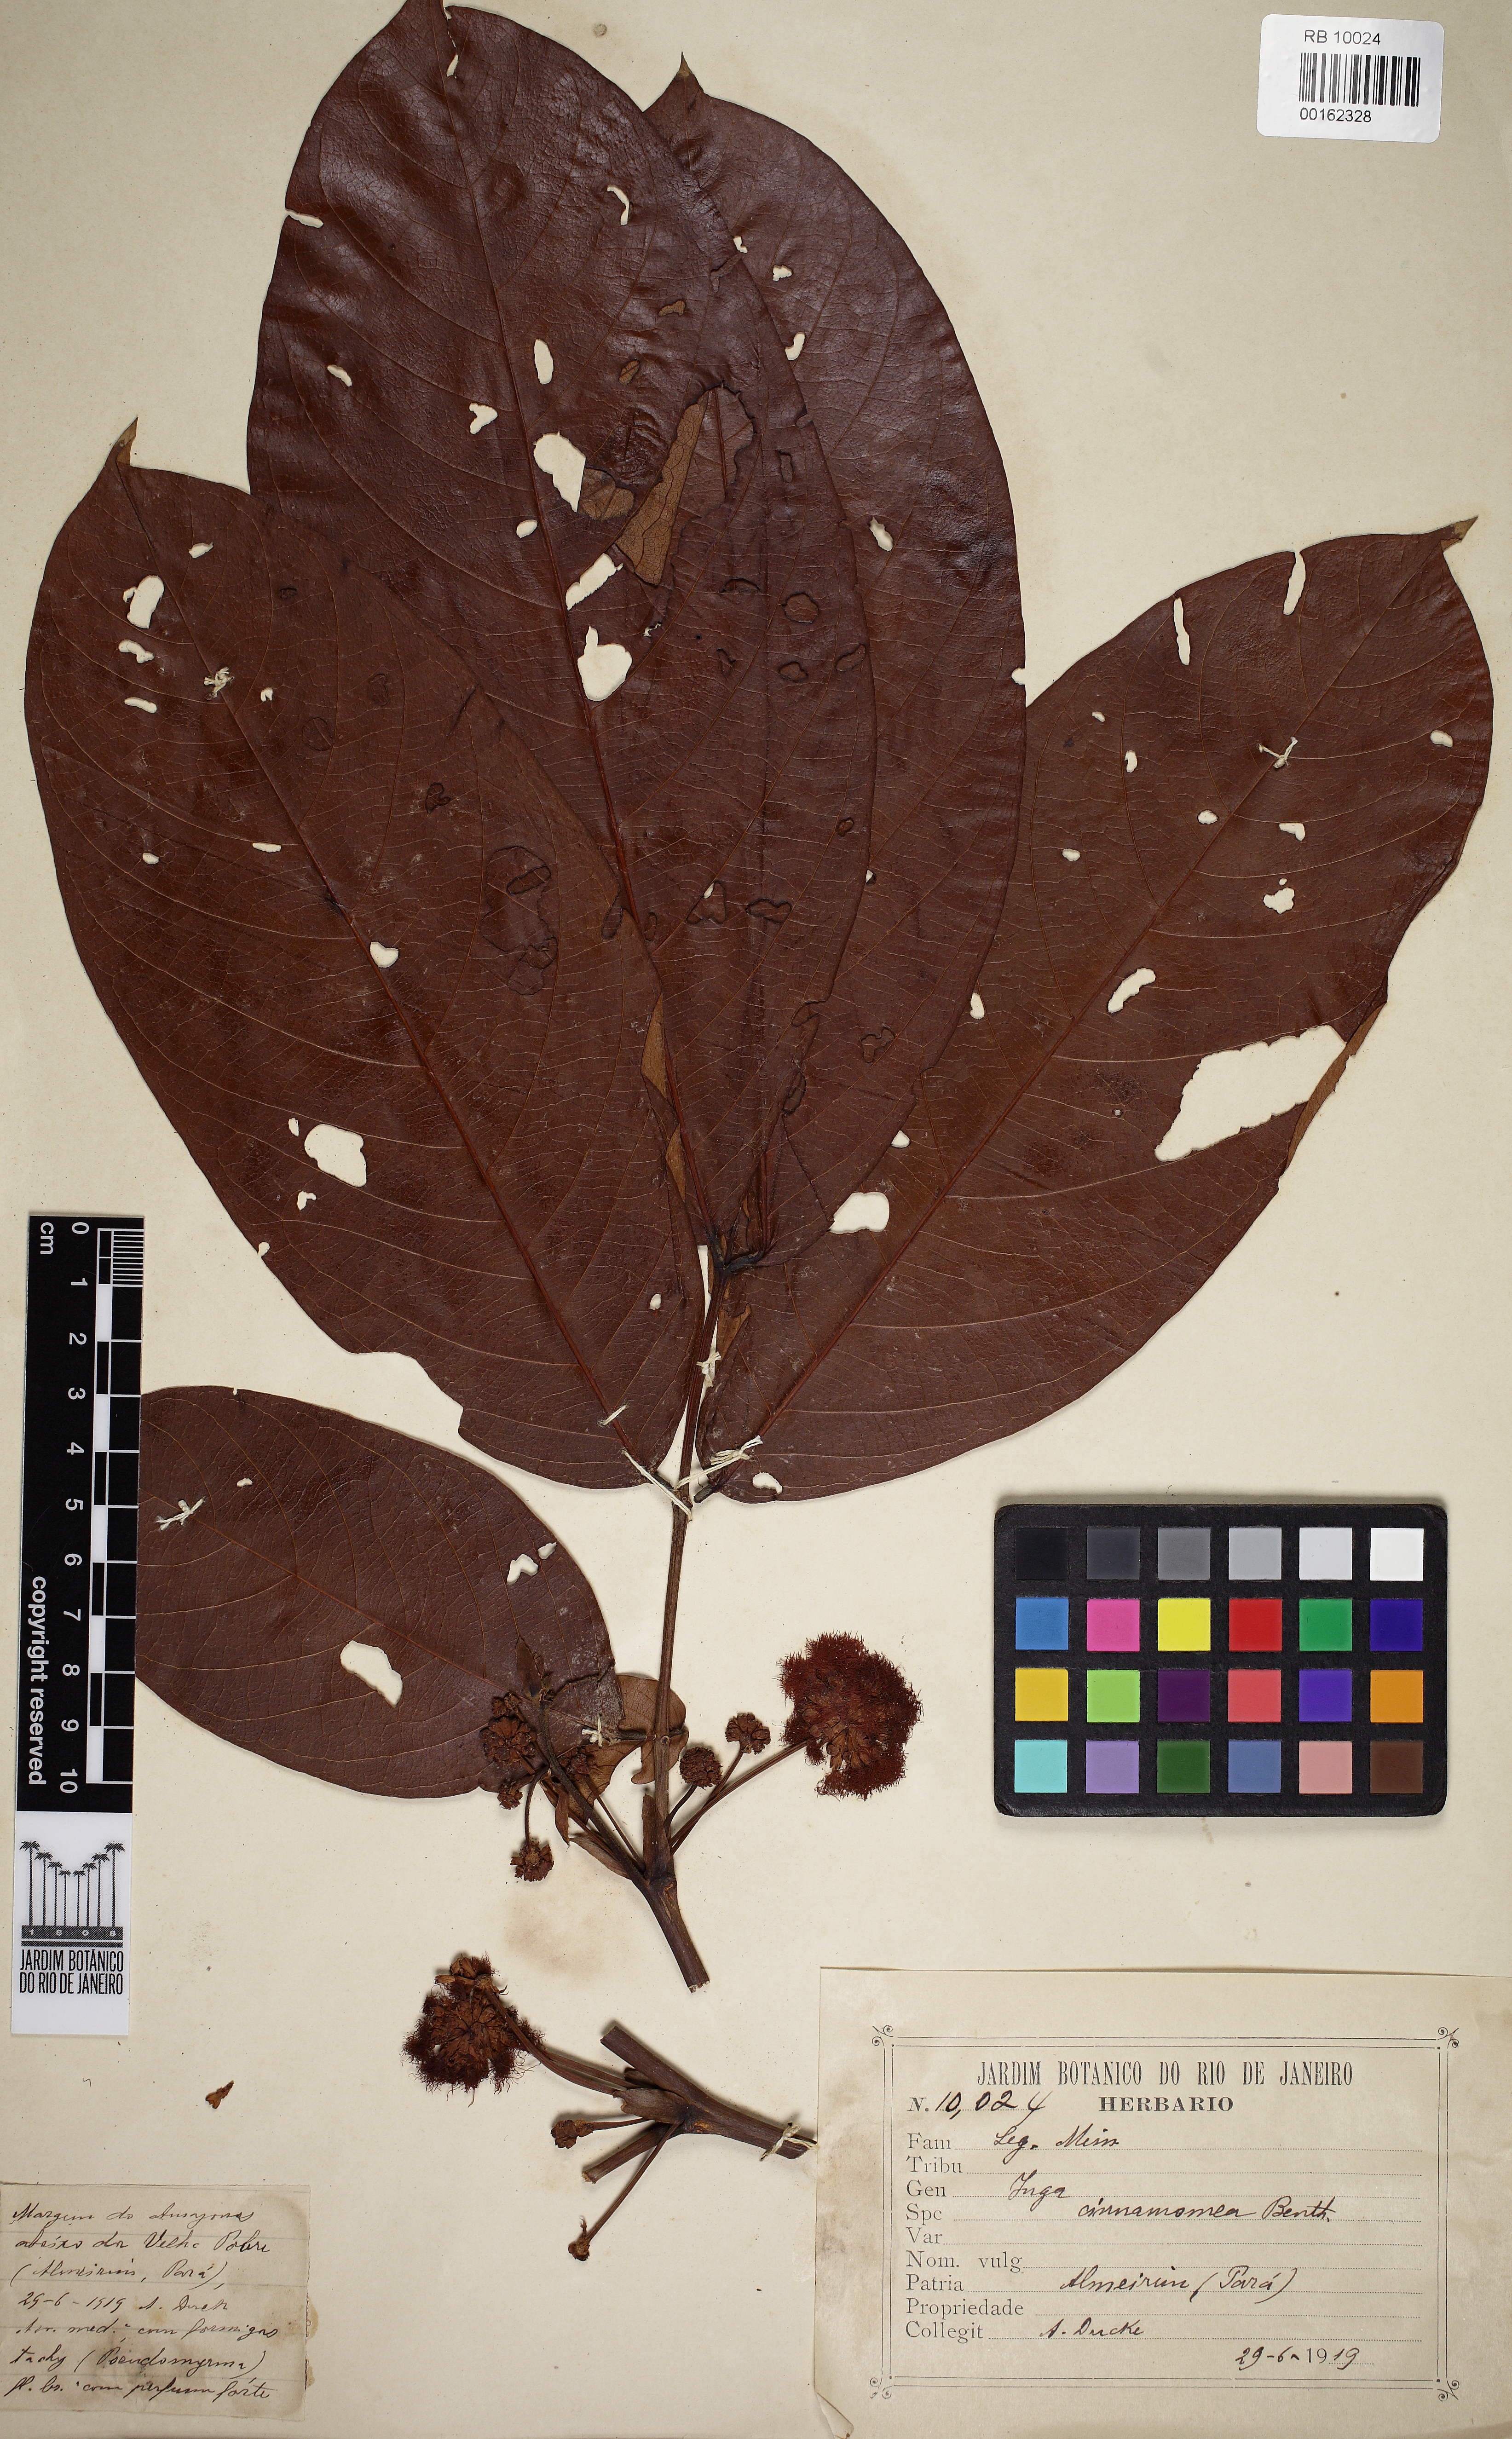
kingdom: Plantae
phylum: Tracheophyta
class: Magnoliopsida
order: Fabales
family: Fabaceae
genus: Inga
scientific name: Inga cinnamomea
